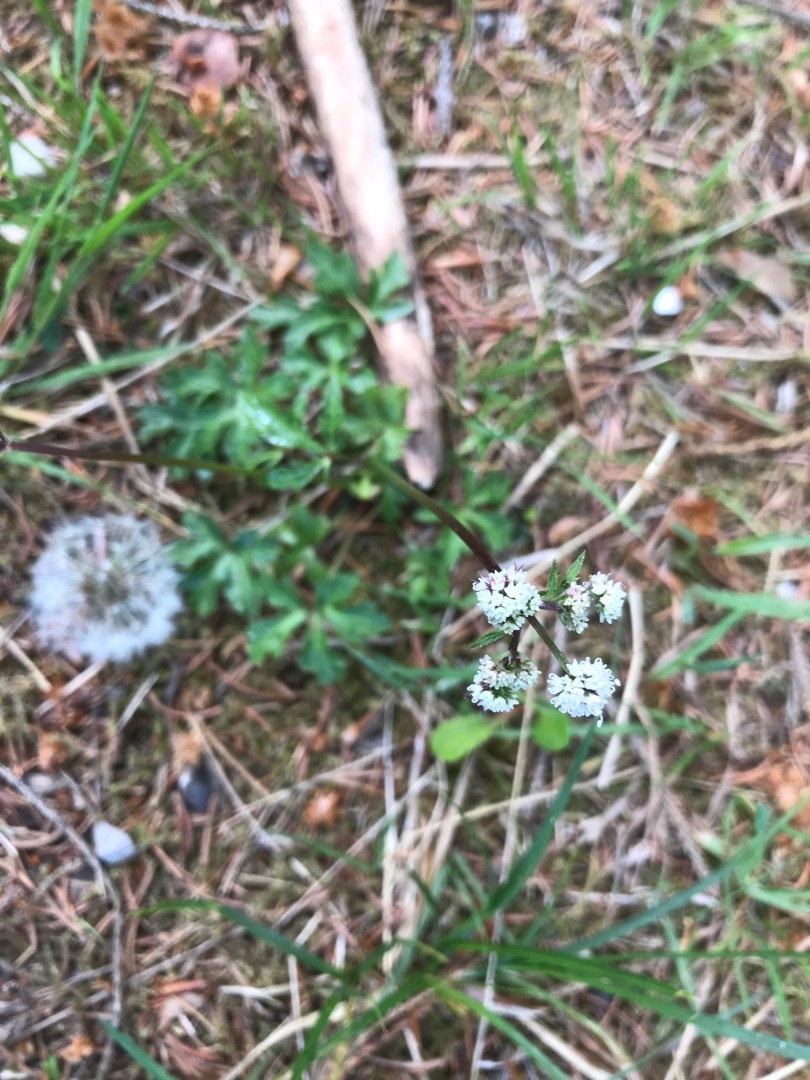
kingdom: Plantae
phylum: Tracheophyta
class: Magnoliopsida
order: Apiales
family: Apiaceae
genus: Sanicula
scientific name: Sanicula europaea
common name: Sanikel
